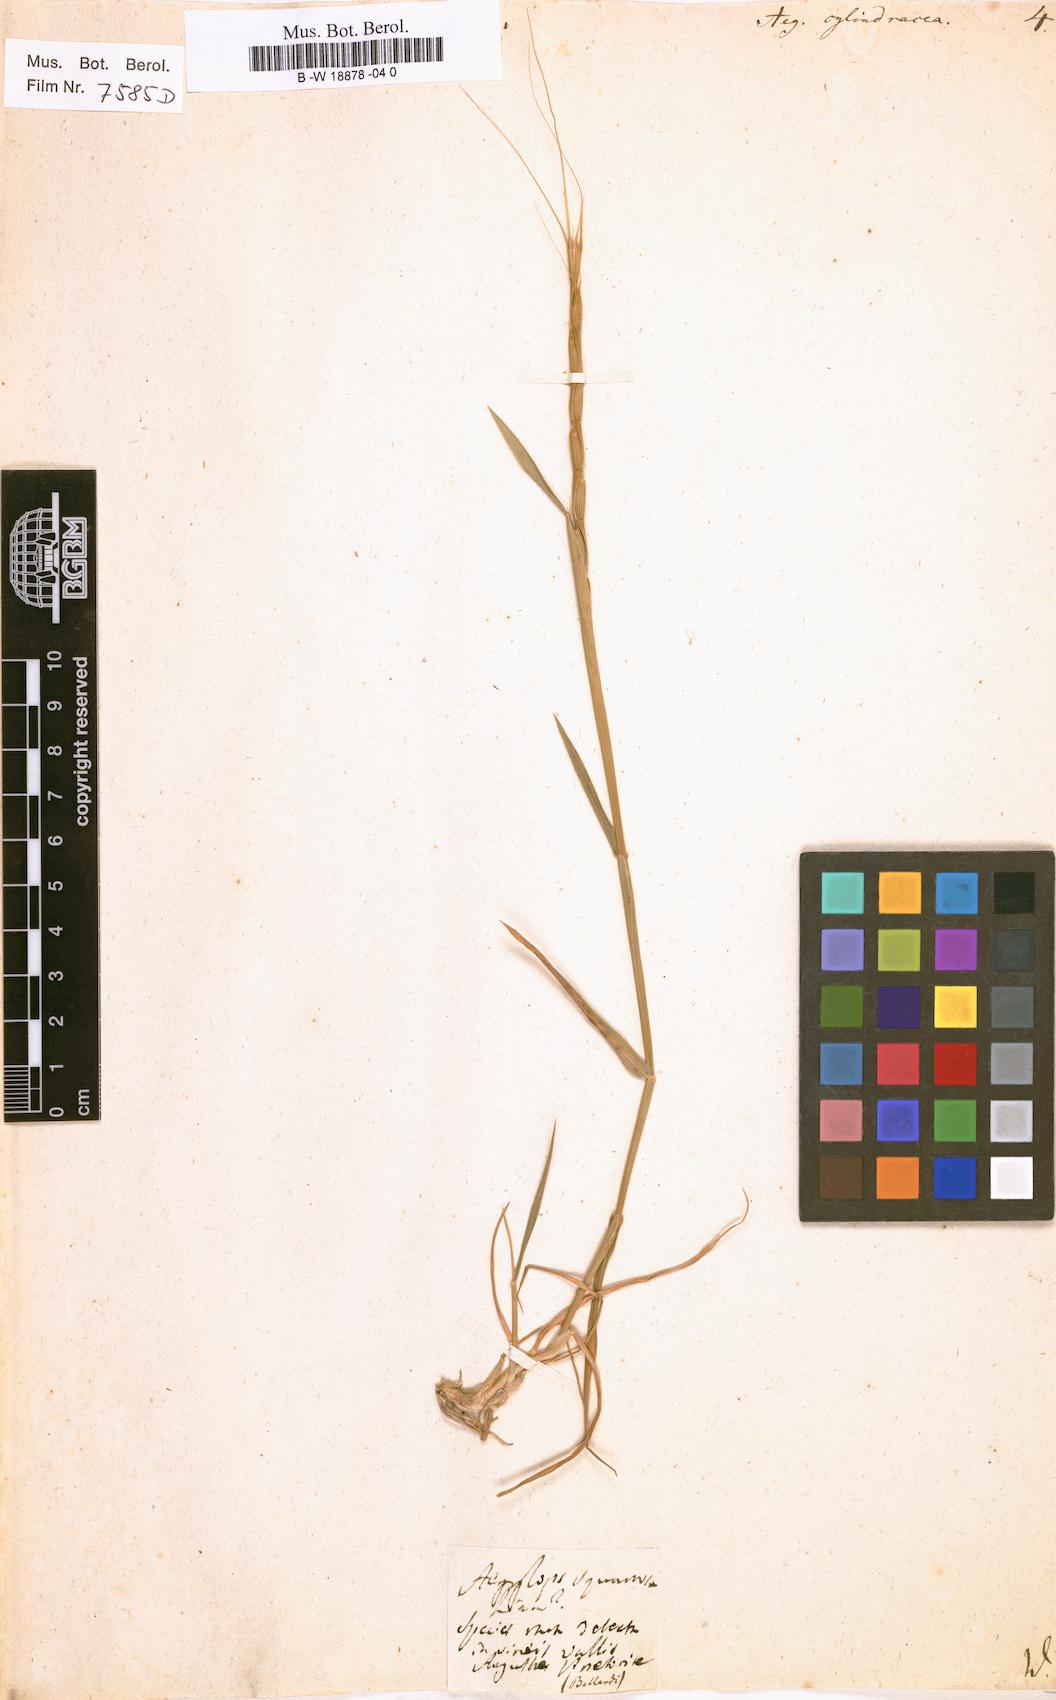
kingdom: Plantae
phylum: Tracheophyta
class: Liliopsida
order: Poales
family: Poaceae
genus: Aegilops
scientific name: Aegilops cylindrica
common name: Jointed goatgrass
